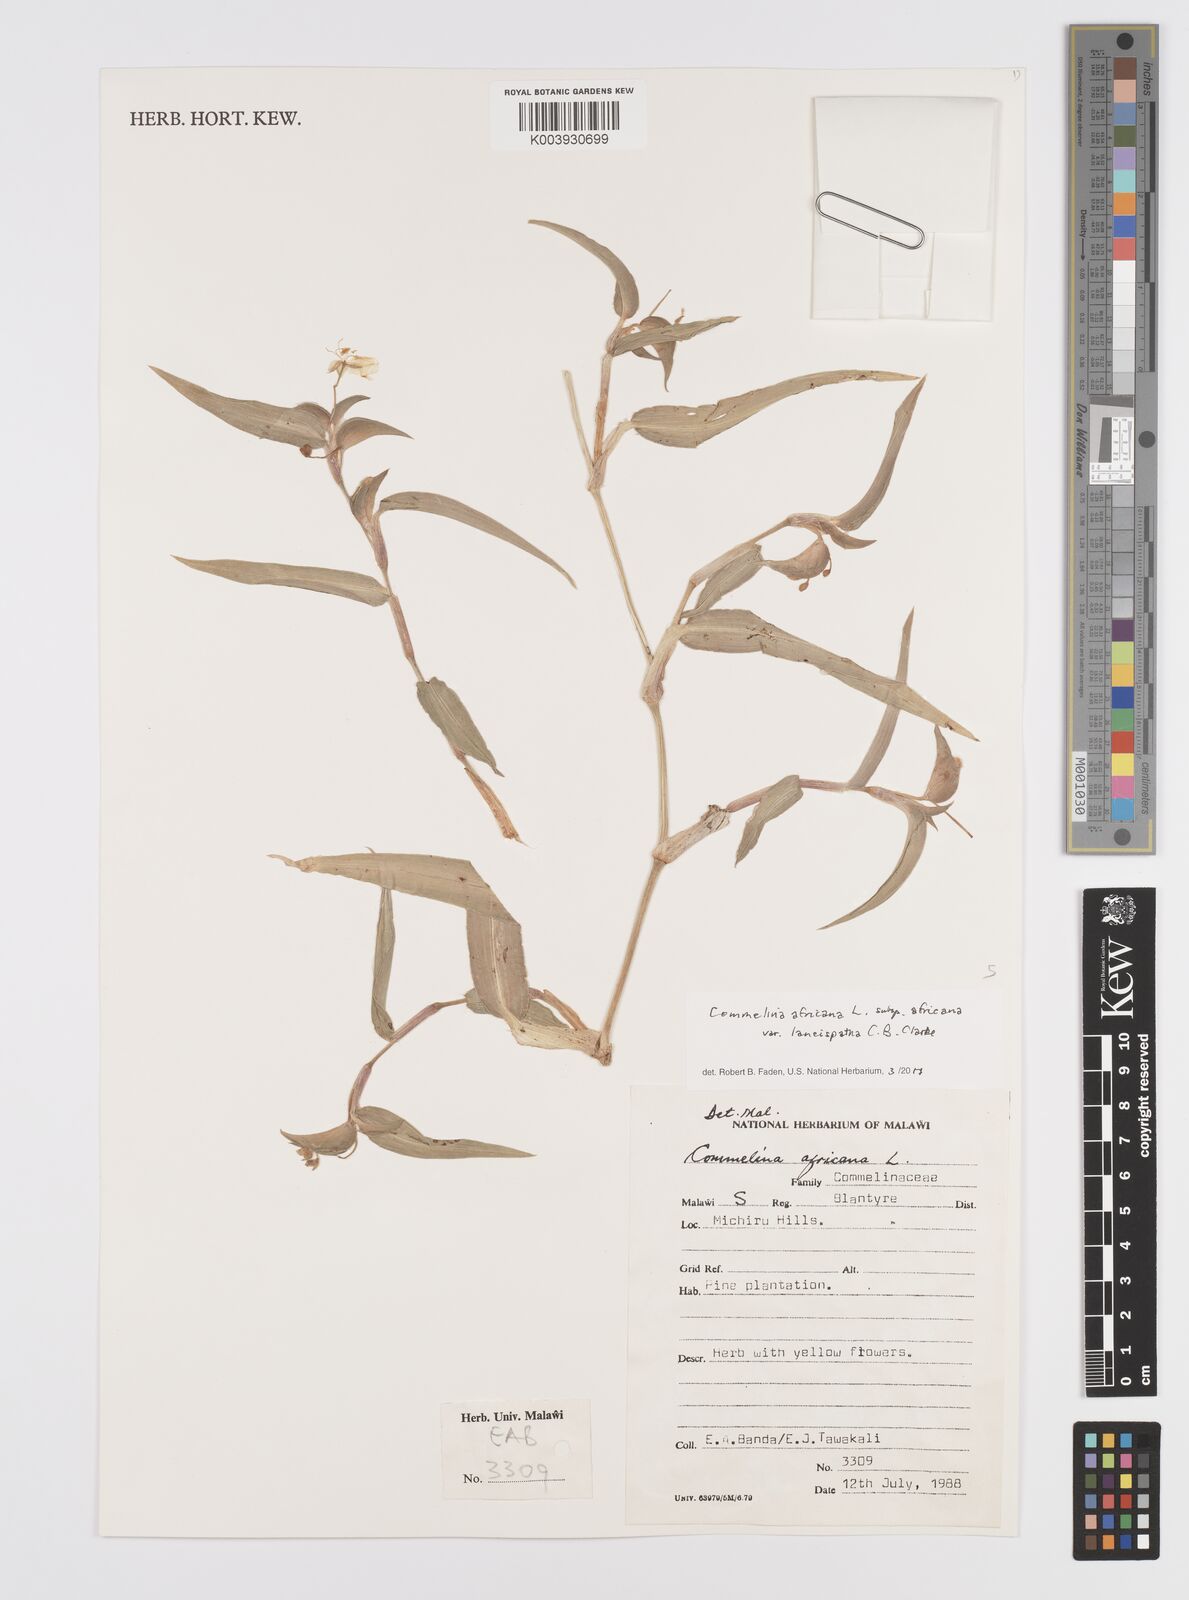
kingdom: Plantae
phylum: Tracheophyta
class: Liliopsida
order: Commelinales
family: Commelinaceae
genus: Commelina
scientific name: Commelina africana
